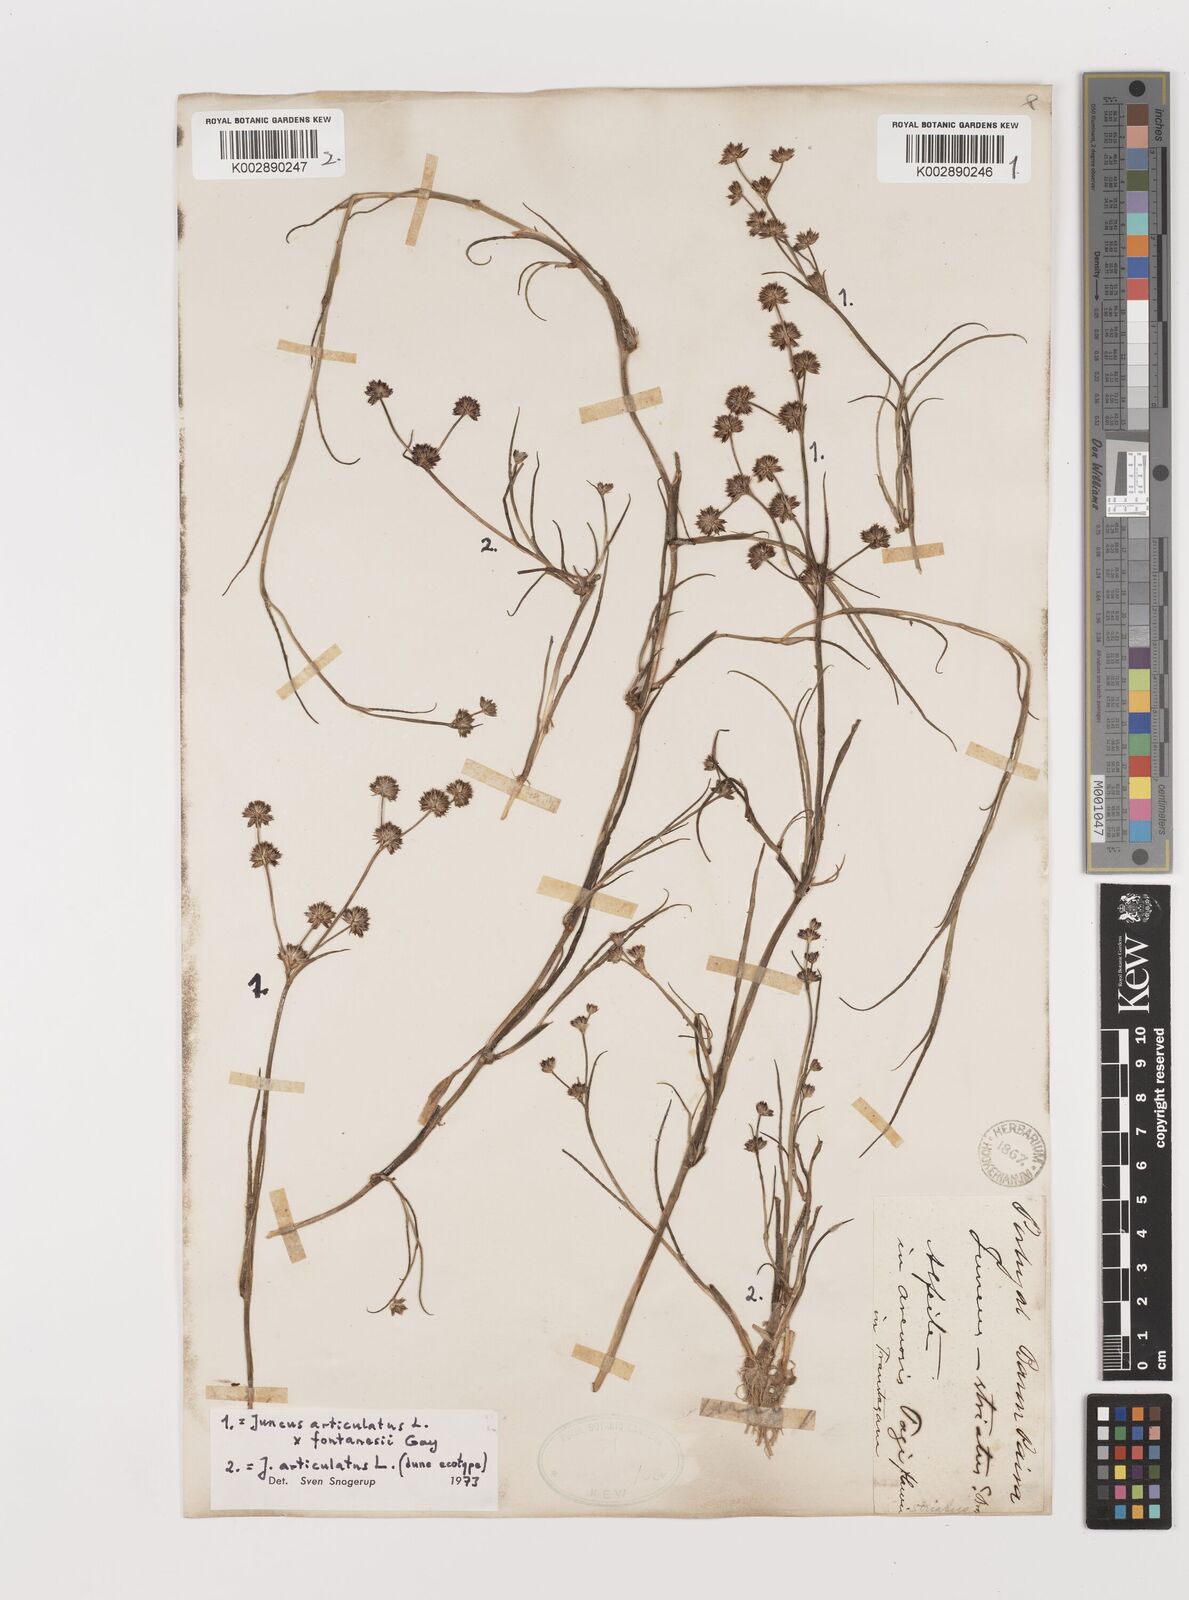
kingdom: Plantae
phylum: Tracheophyta
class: Liliopsida
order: Poales
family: Juncaceae
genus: Juncus
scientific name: Juncus articulatus
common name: Jointed rush
